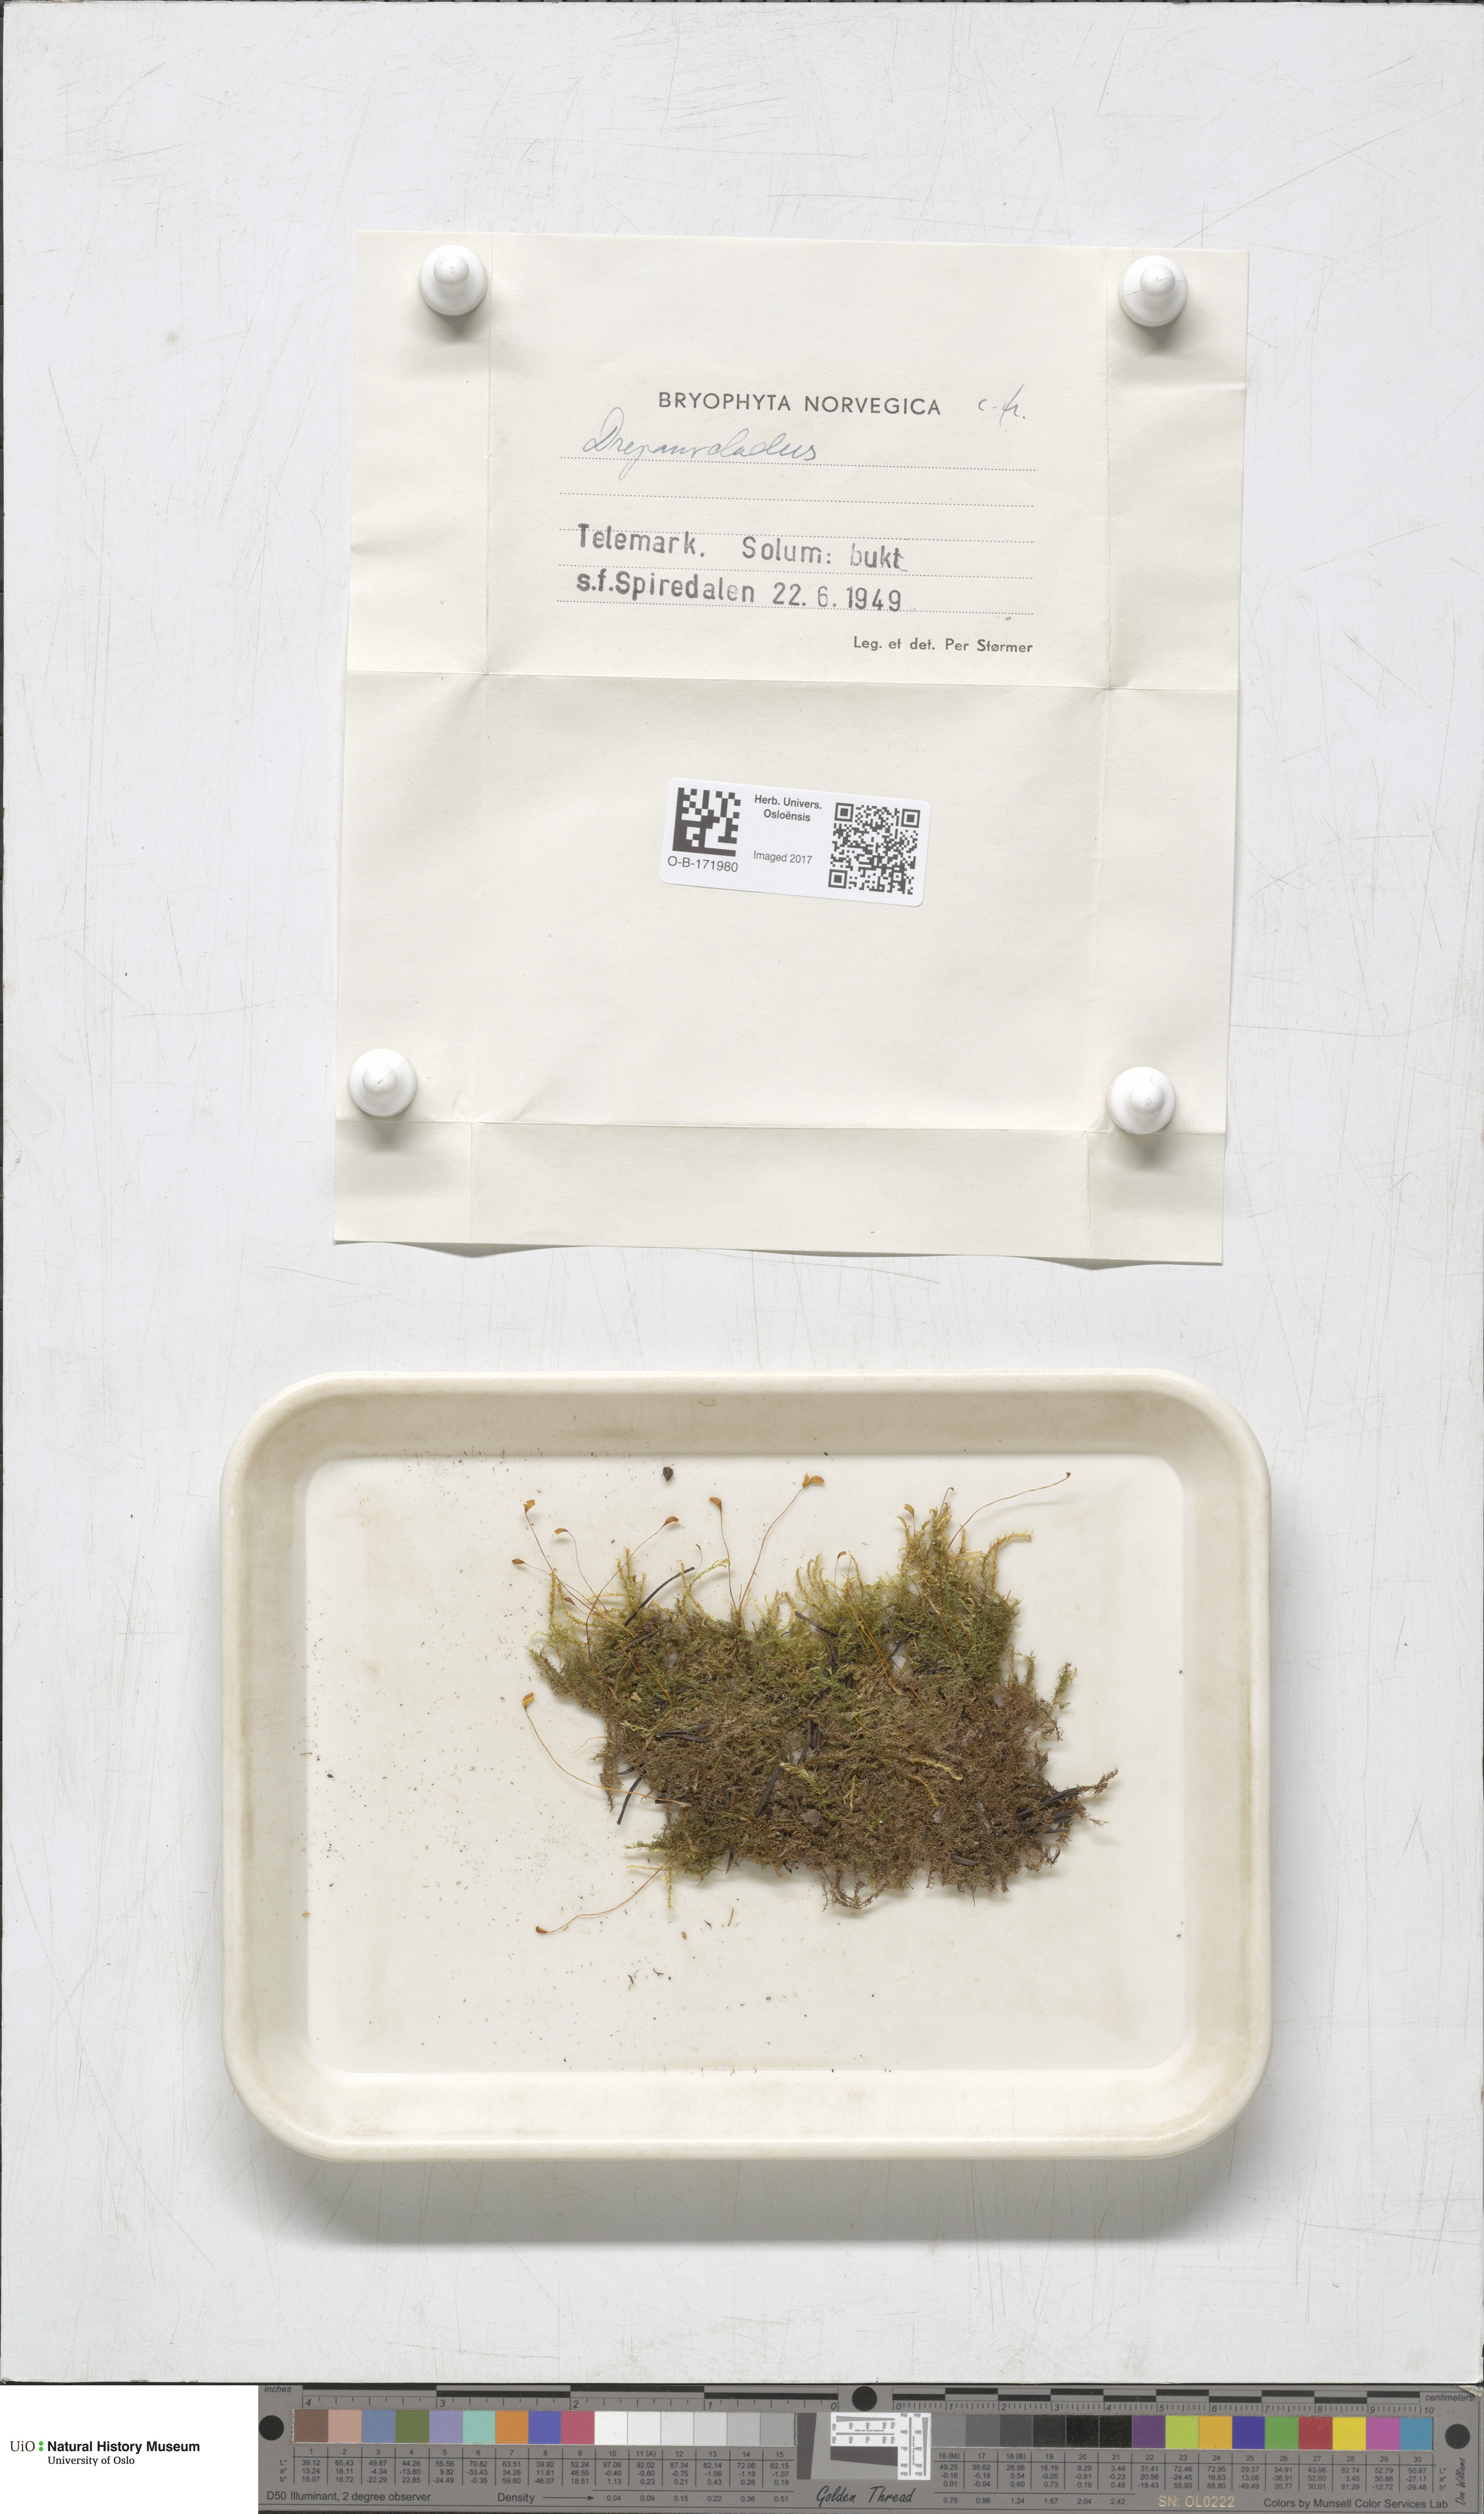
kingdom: Plantae
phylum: Bryophyta
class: Bryopsida
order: Hypnales
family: Amblystegiaceae
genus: Drepanocladus
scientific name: Drepanocladus sordidus
